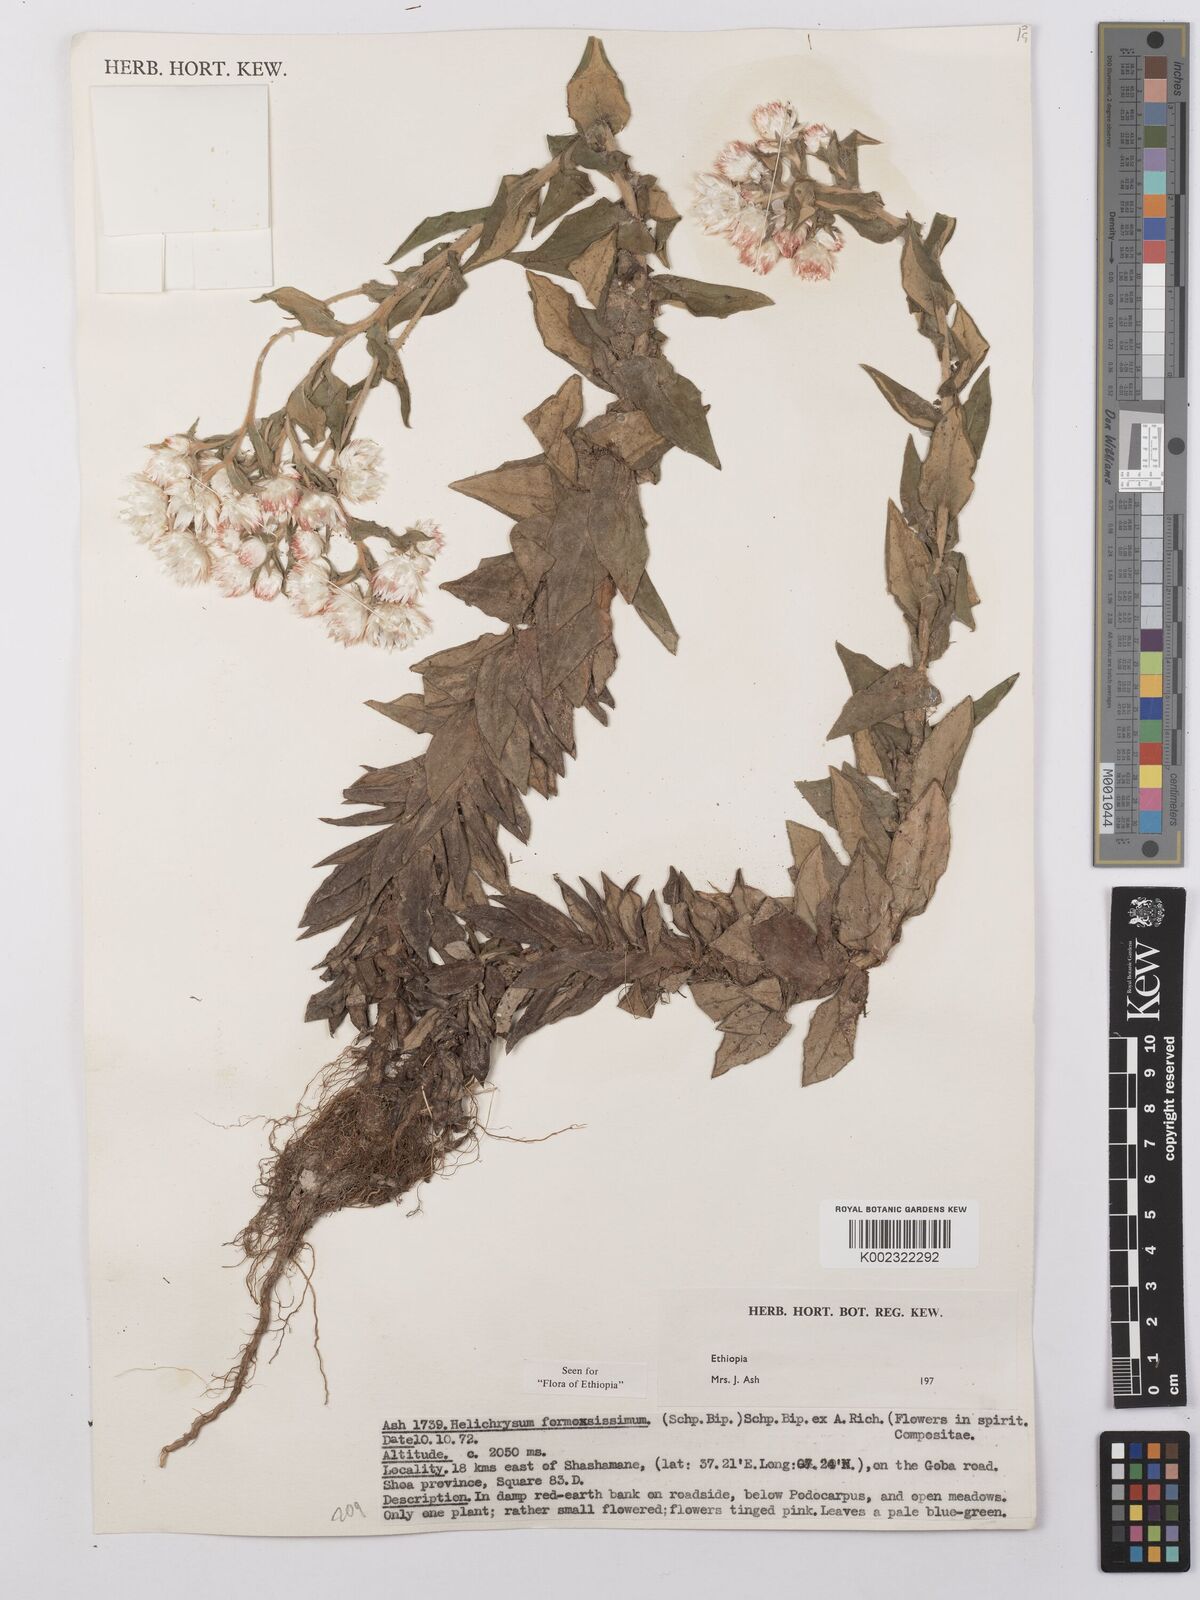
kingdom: Plantae
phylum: Tracheophyta
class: Magnoliopsida
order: Asterales
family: Asteraceae
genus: Helichrysum
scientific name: Helichrysum formosissimum
